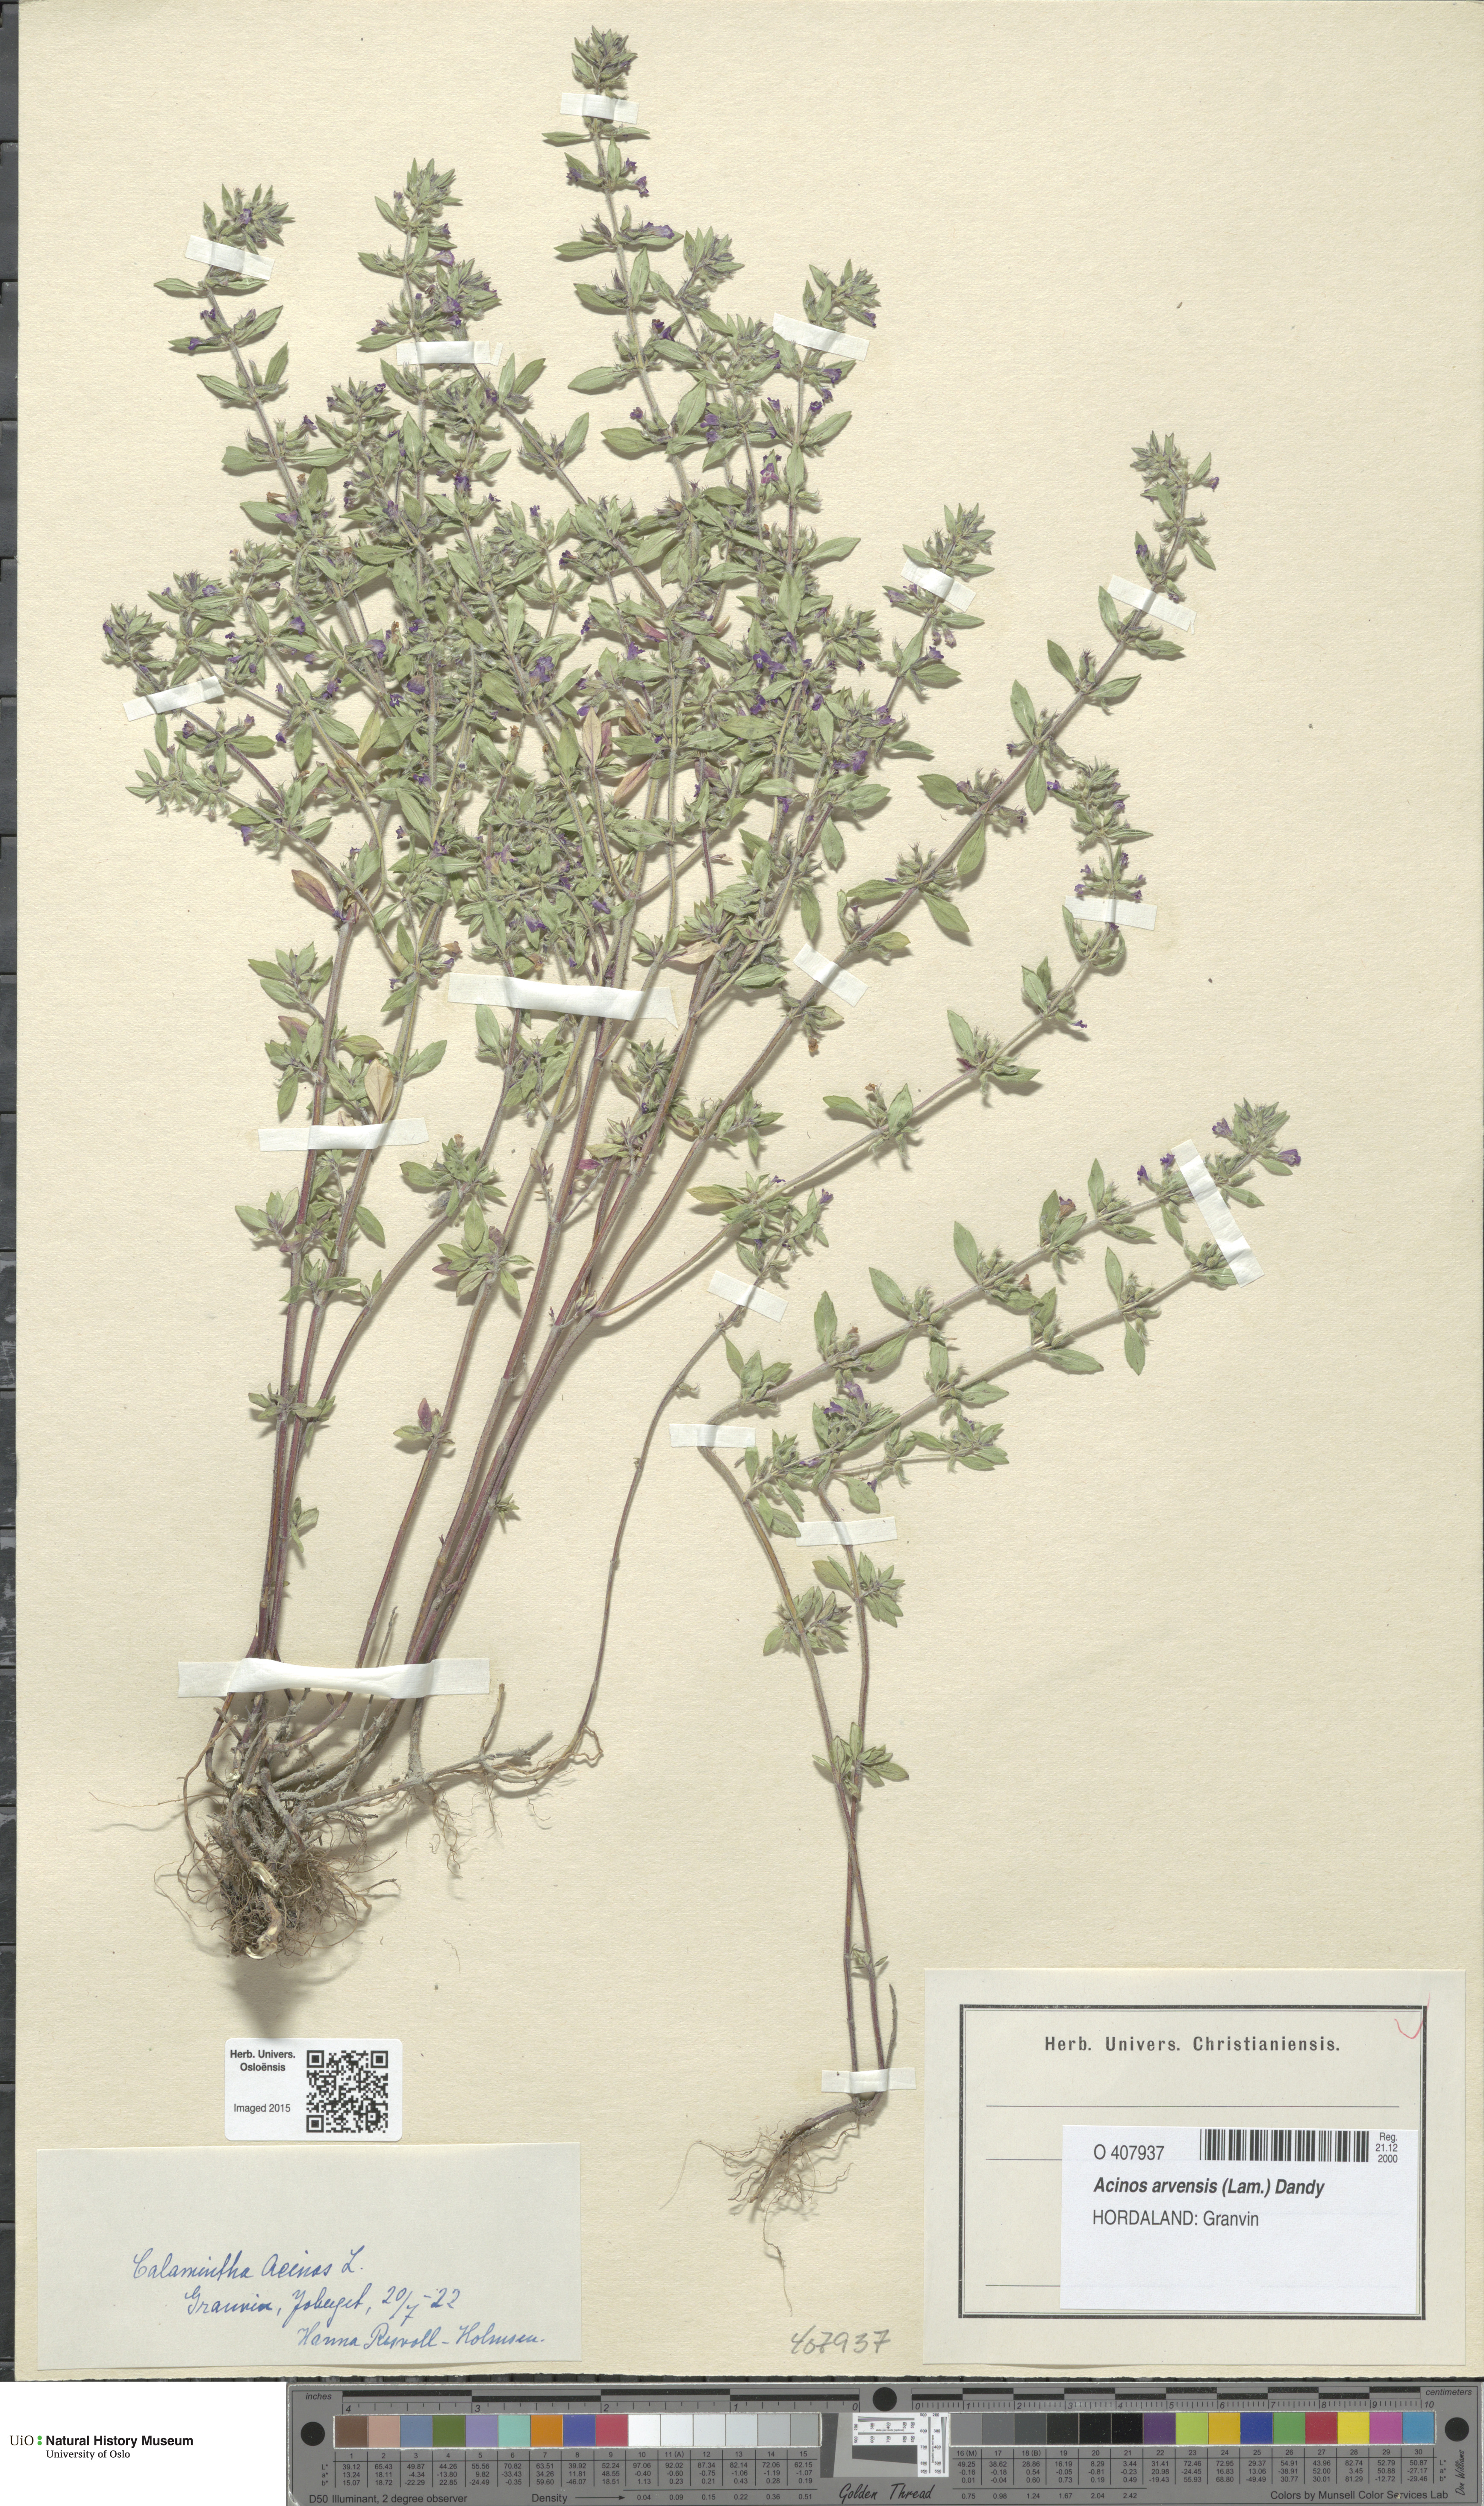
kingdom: Plantae
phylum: Tracheophyta
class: Magnoliopsida
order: Lamiales
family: Lamiaceae
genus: Clinopodium
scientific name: Clinopodium acinos
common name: Basil thyme
